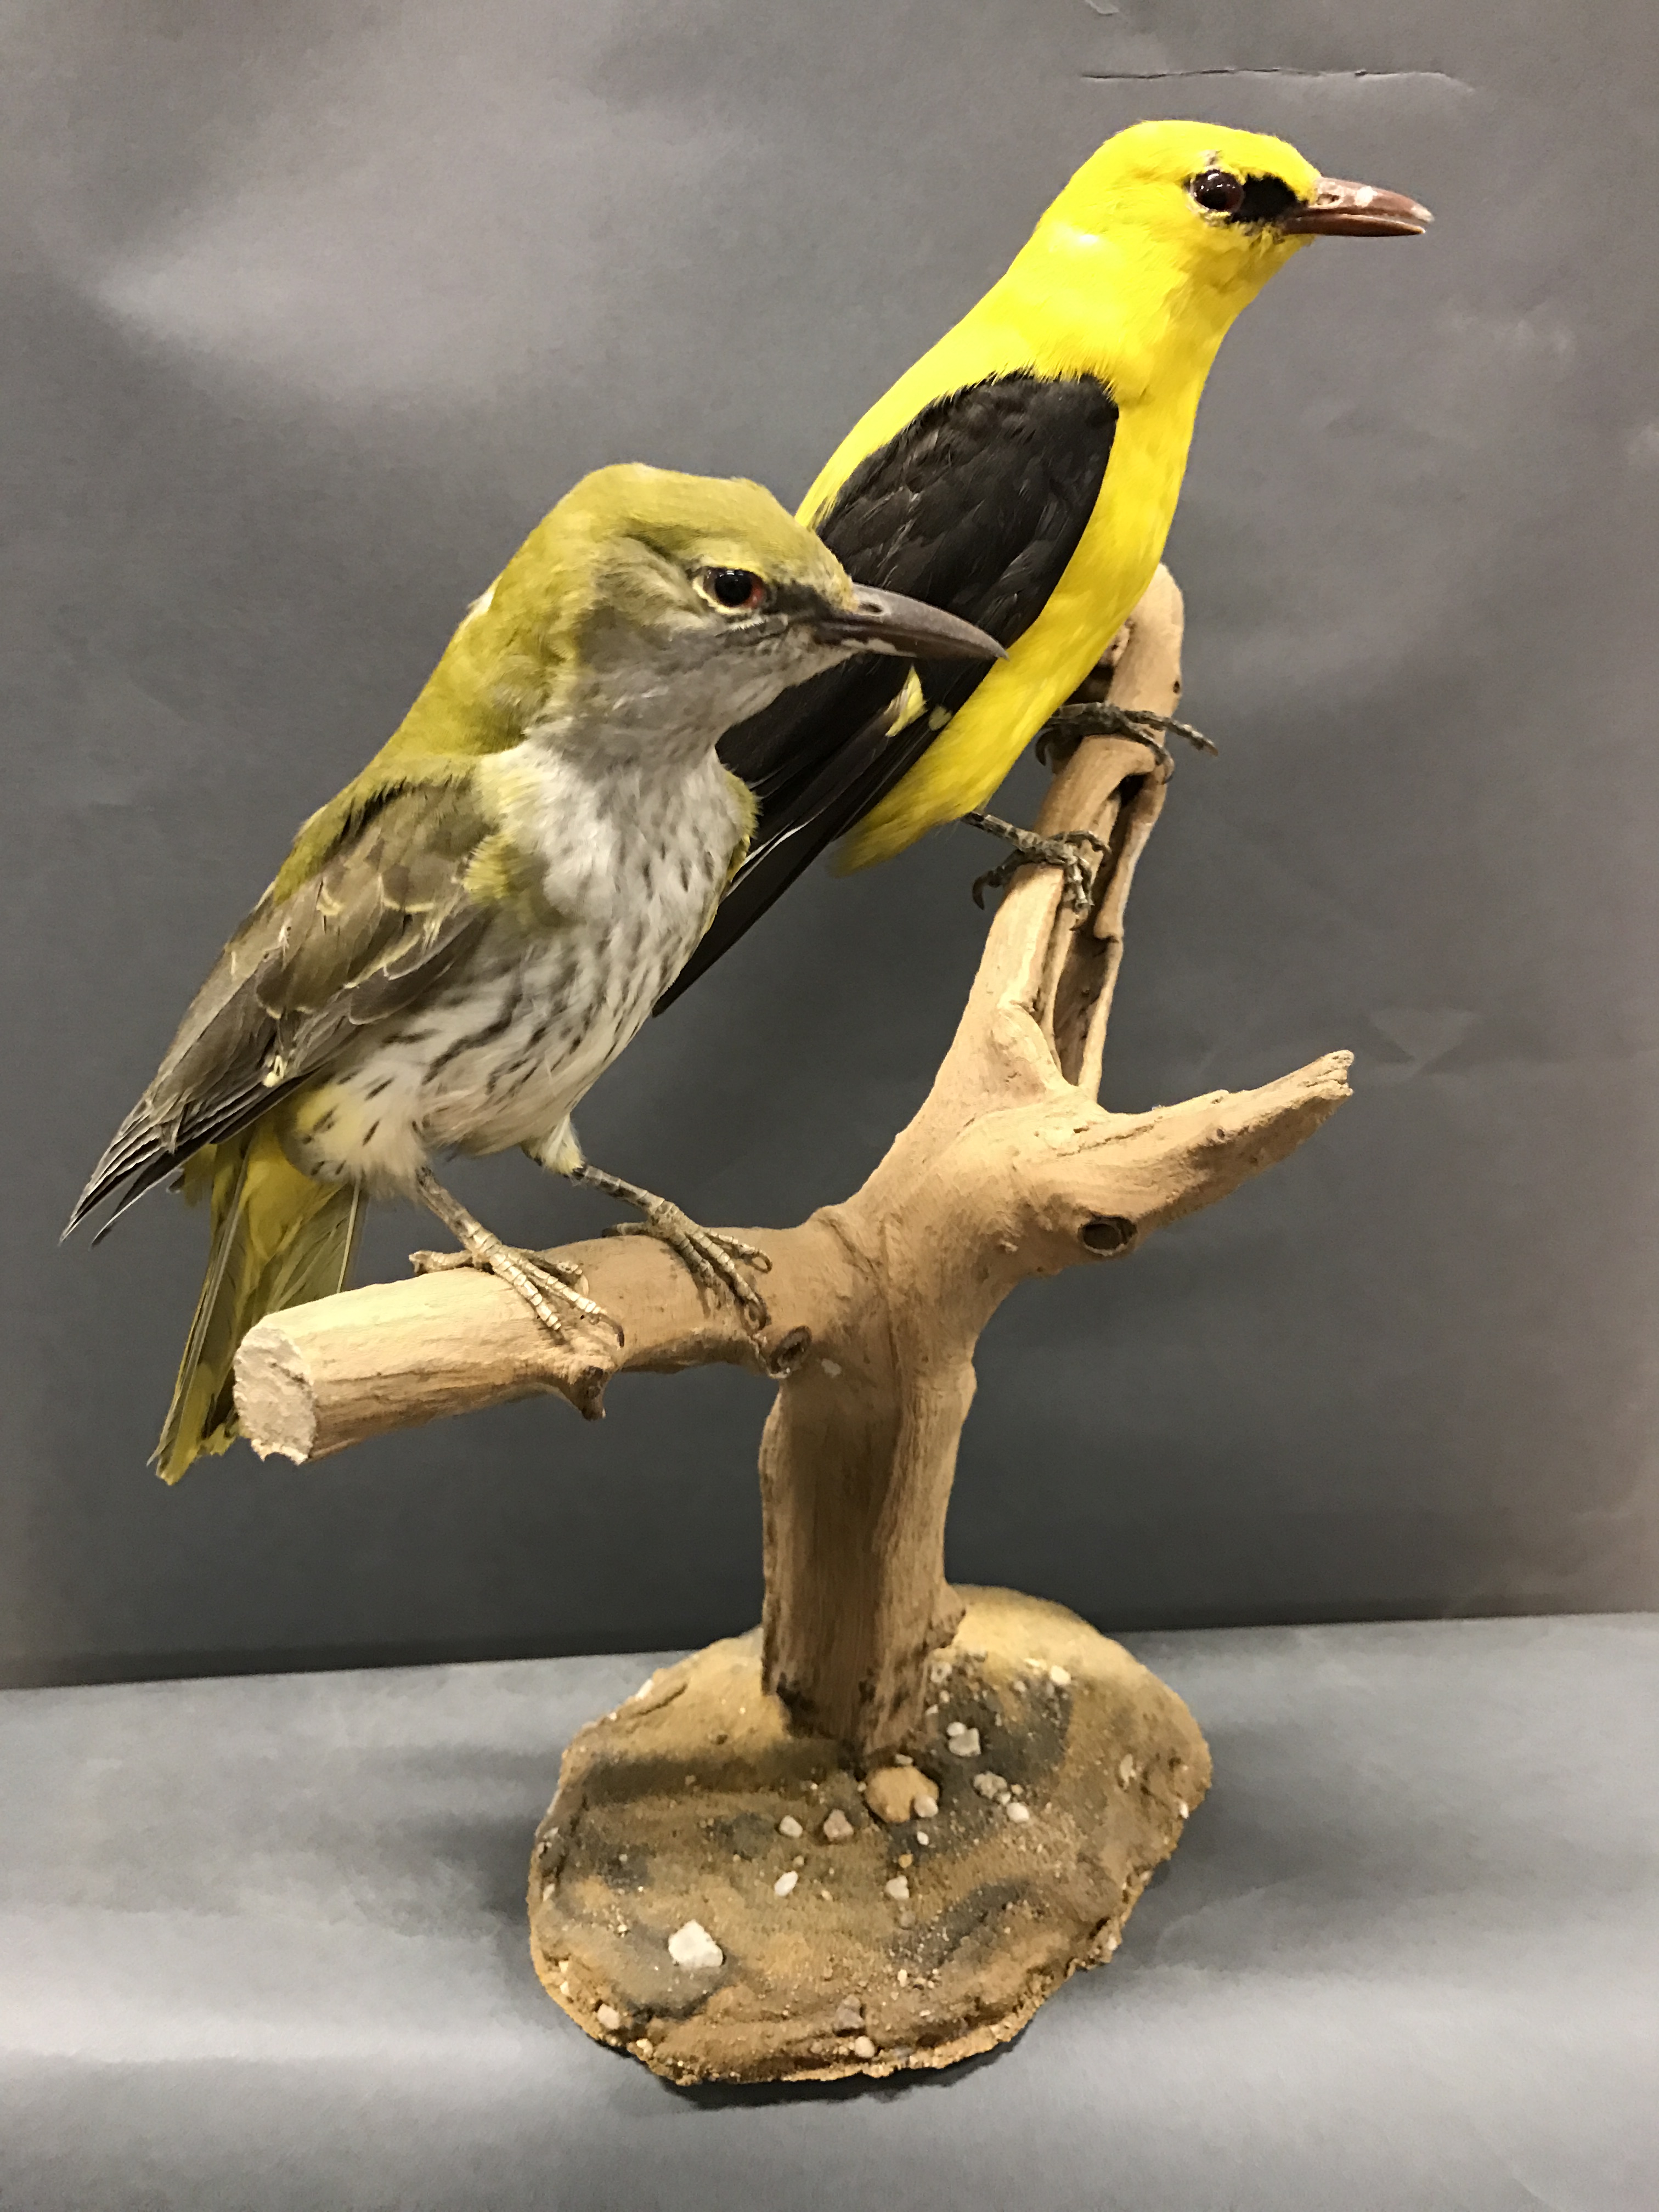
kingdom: Animalia
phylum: Chordata
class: Aves
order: Passeriformes
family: Oriolidae
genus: Oriolus
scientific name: Oriolus oriolus
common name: Eurasian golden oriole
